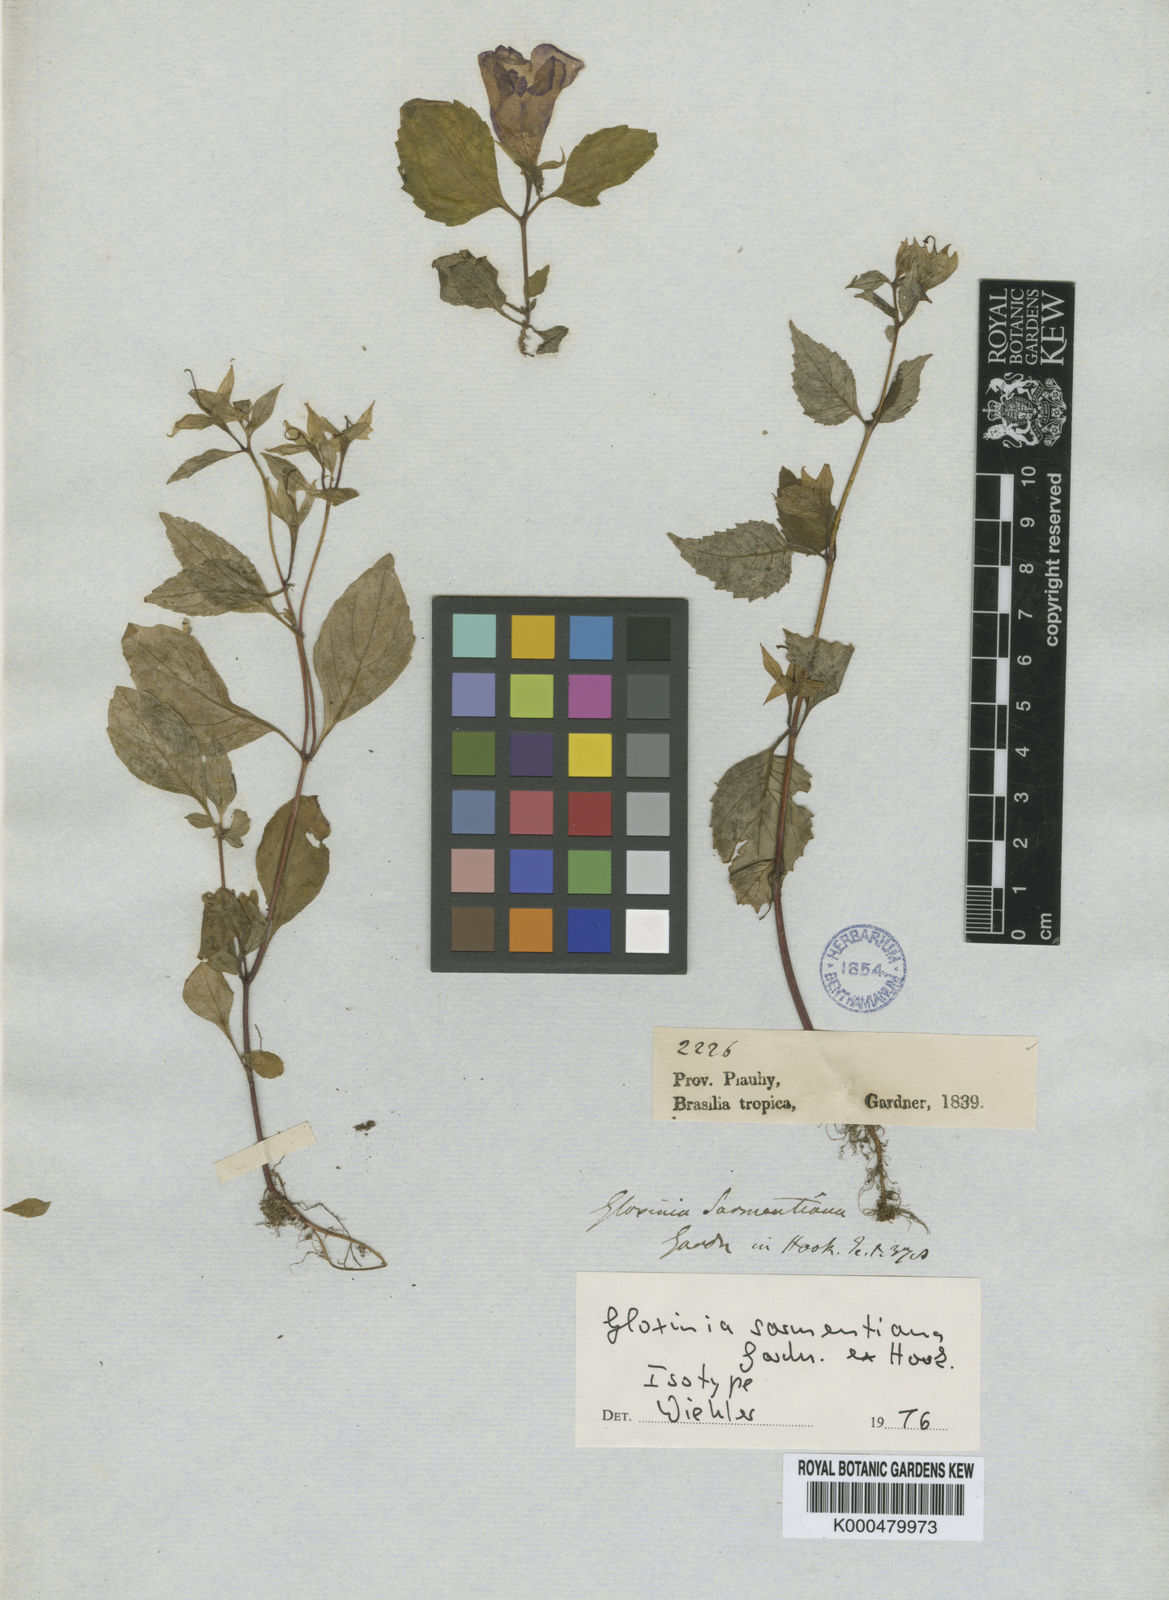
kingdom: Plantae
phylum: Tracheophyta
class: Magnoliopsida
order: Lamiales
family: Gesneriaceae
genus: Sphaerorrhiza
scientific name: Sphaerorrhiza sarmentiana
